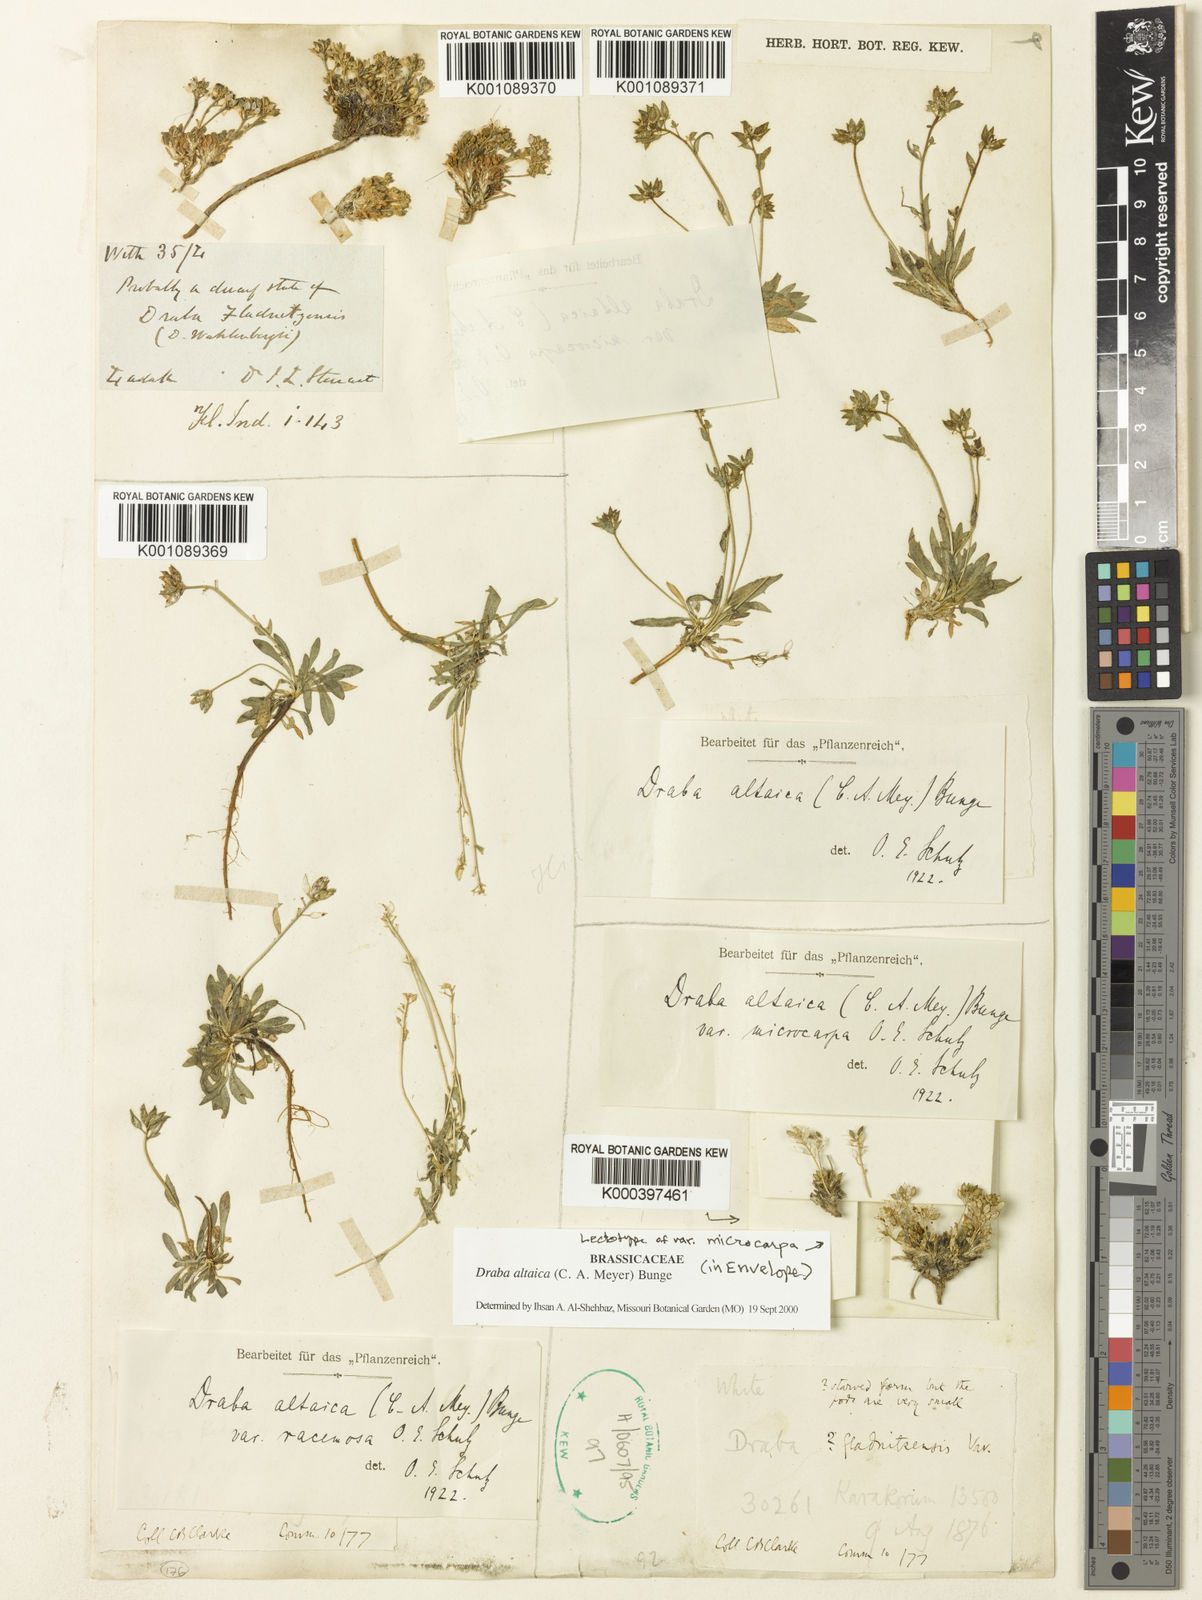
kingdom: Plantae
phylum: Tracheophyta
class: Magnoliopsida
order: Brassicales
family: Brassicaceae
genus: Draba
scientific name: Draba altaica
